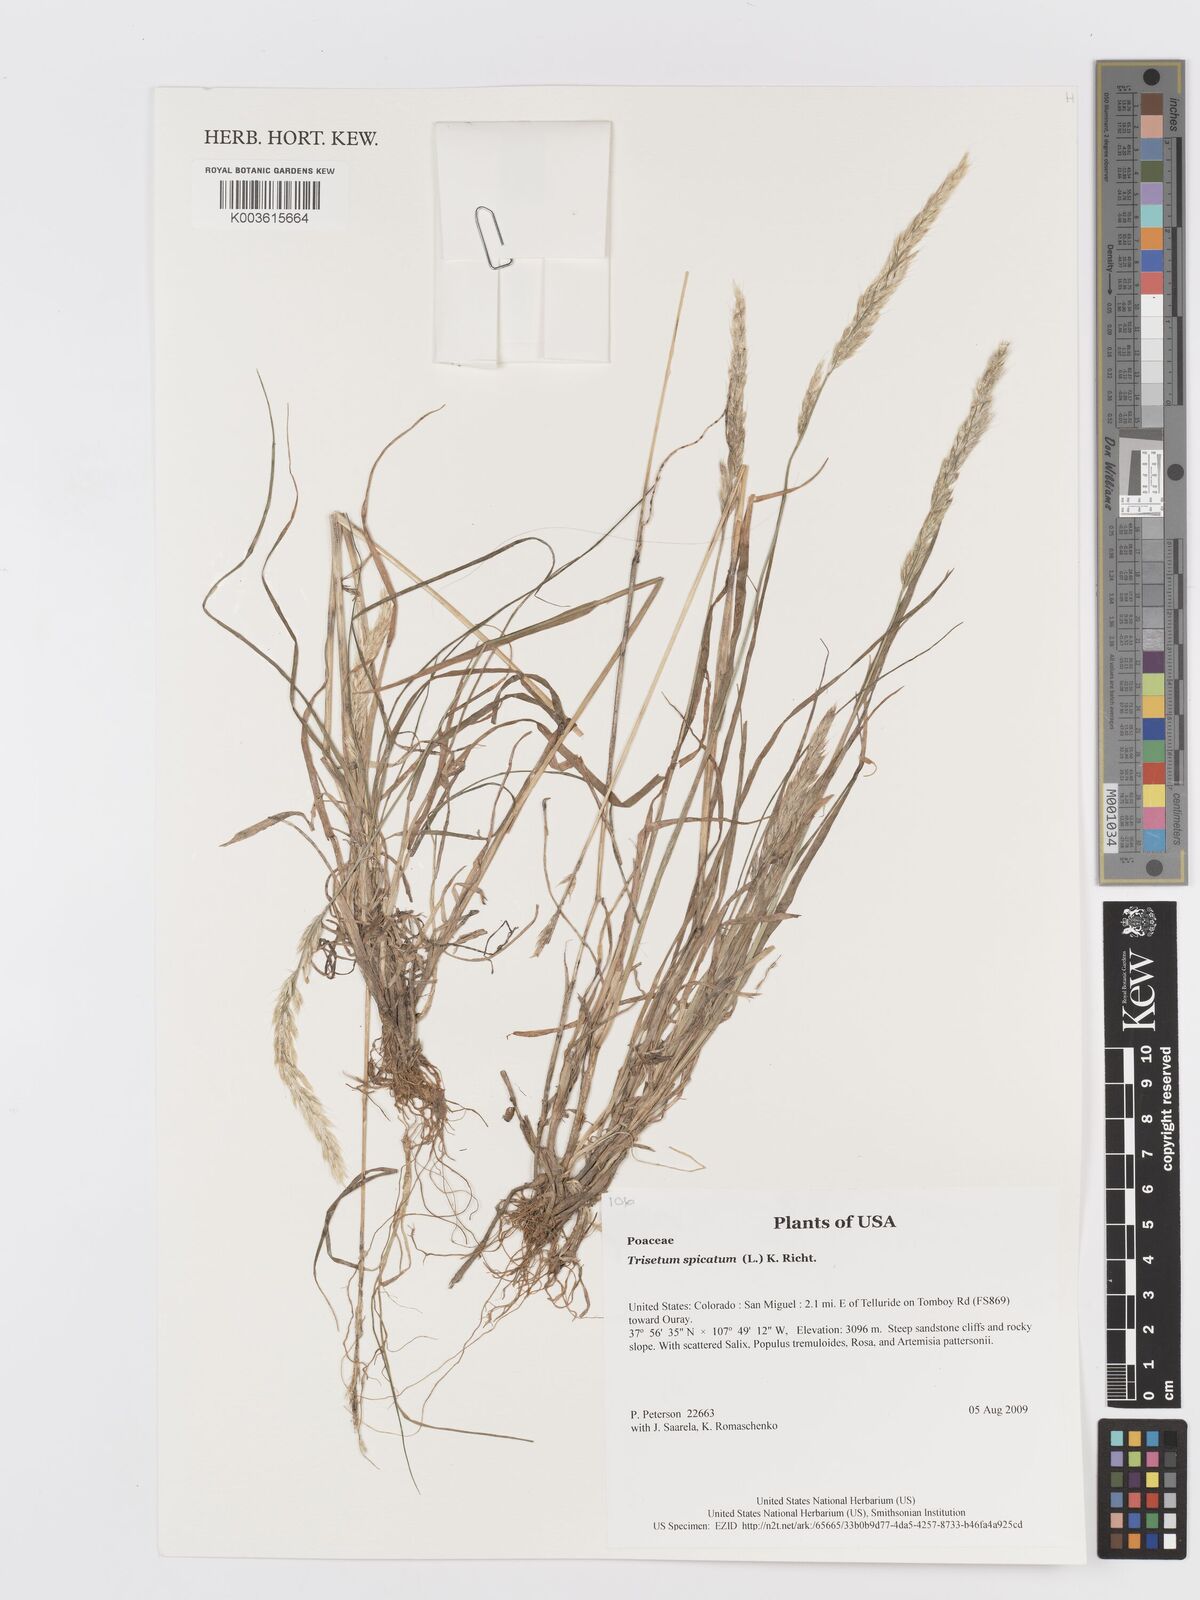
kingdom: Plantae
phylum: Tracheophyta
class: Liliopsida
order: Poales
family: Poaceae
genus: Koeleria
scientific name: Koeleria spicata
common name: Mountain trisetum
